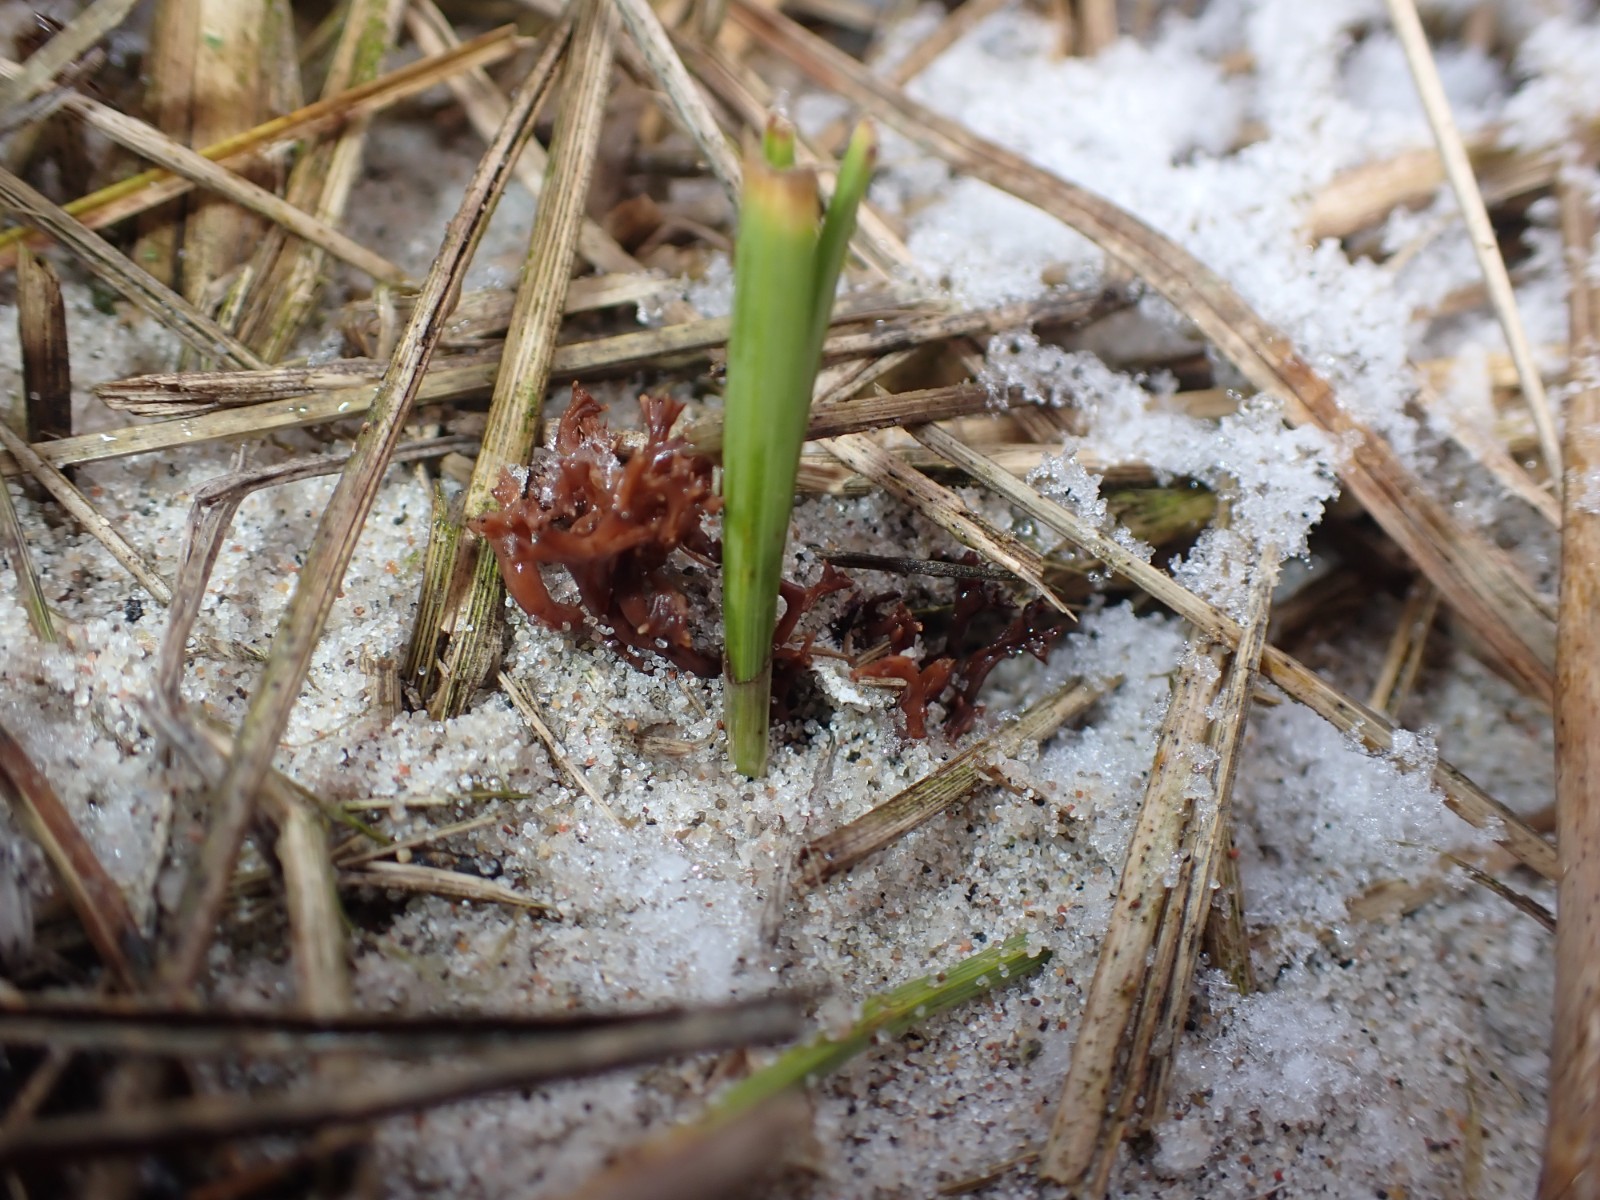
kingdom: Fungi
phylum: Basidiomycota
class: Agaricomycetes
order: Gomphales
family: Gomphaceae
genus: Ramaria
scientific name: Ramaria ammophila
